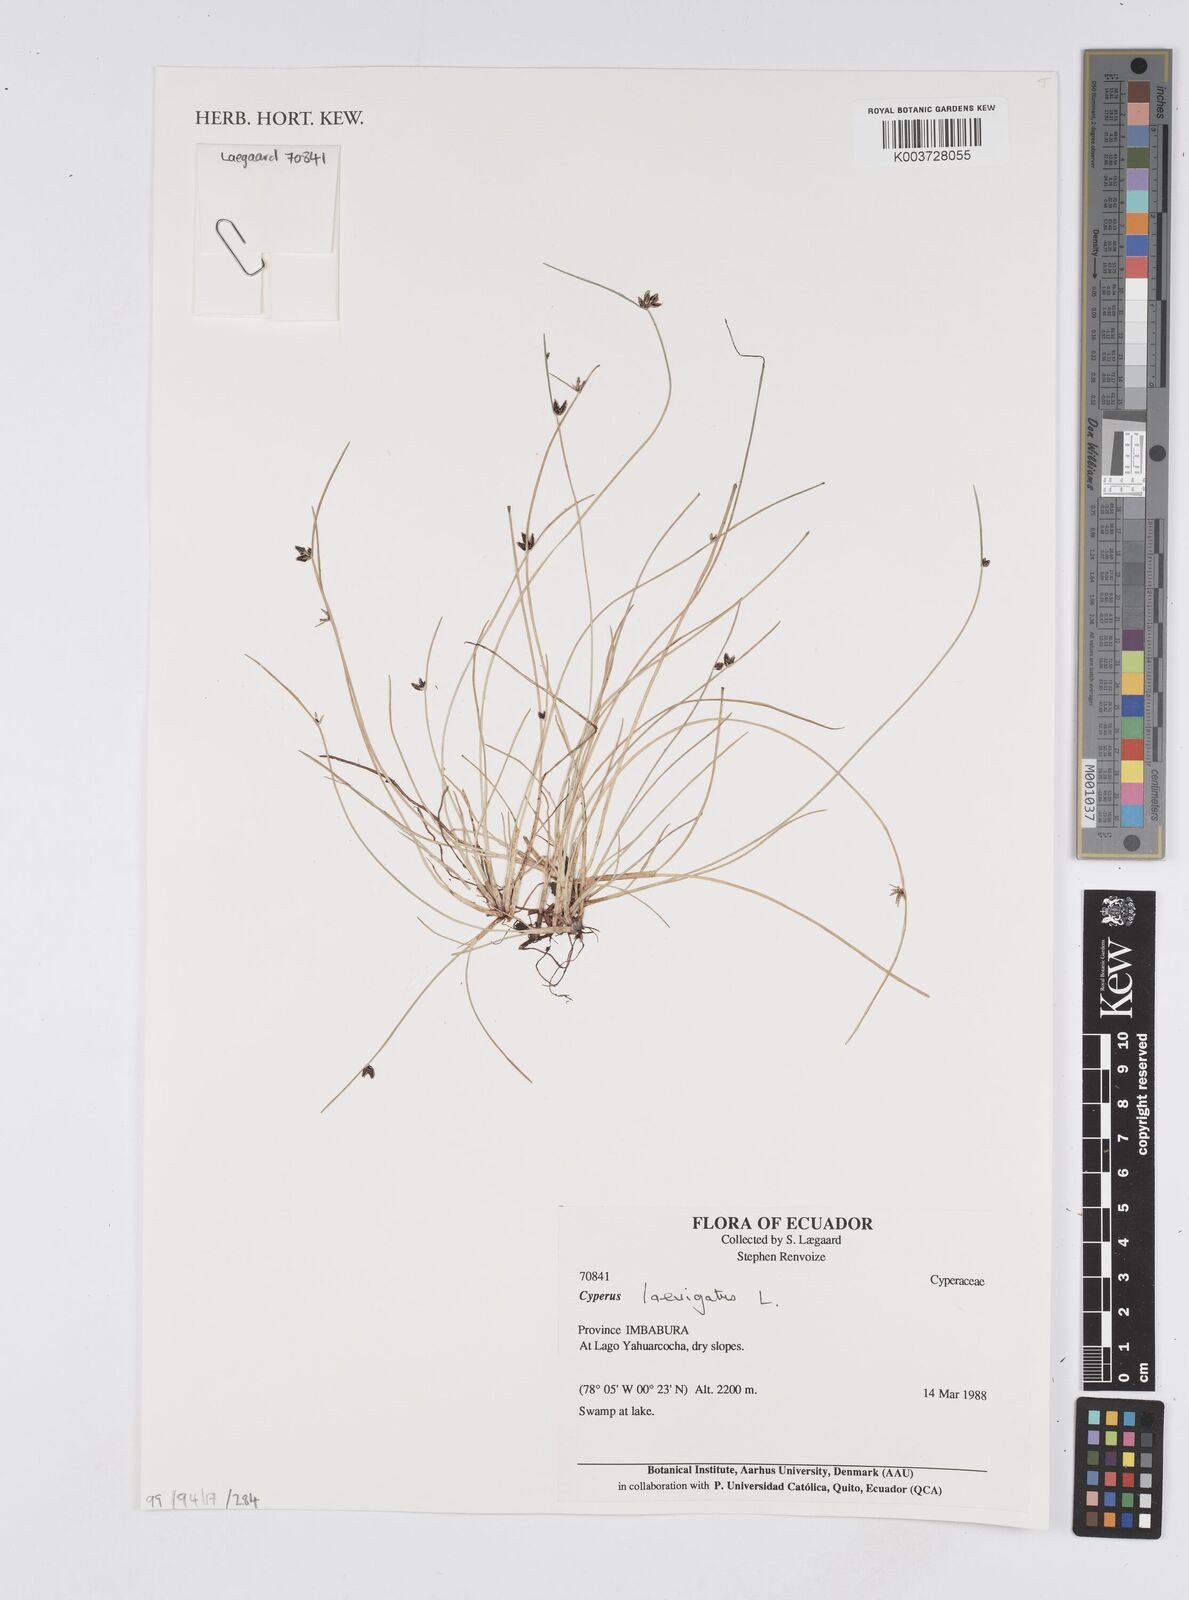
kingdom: Plantae
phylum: Tracheophyta
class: Liliopsida
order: Poales
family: Cyperaceae
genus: Cyperus
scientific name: Cyperus laevigatus
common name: Smooth flat sedge
